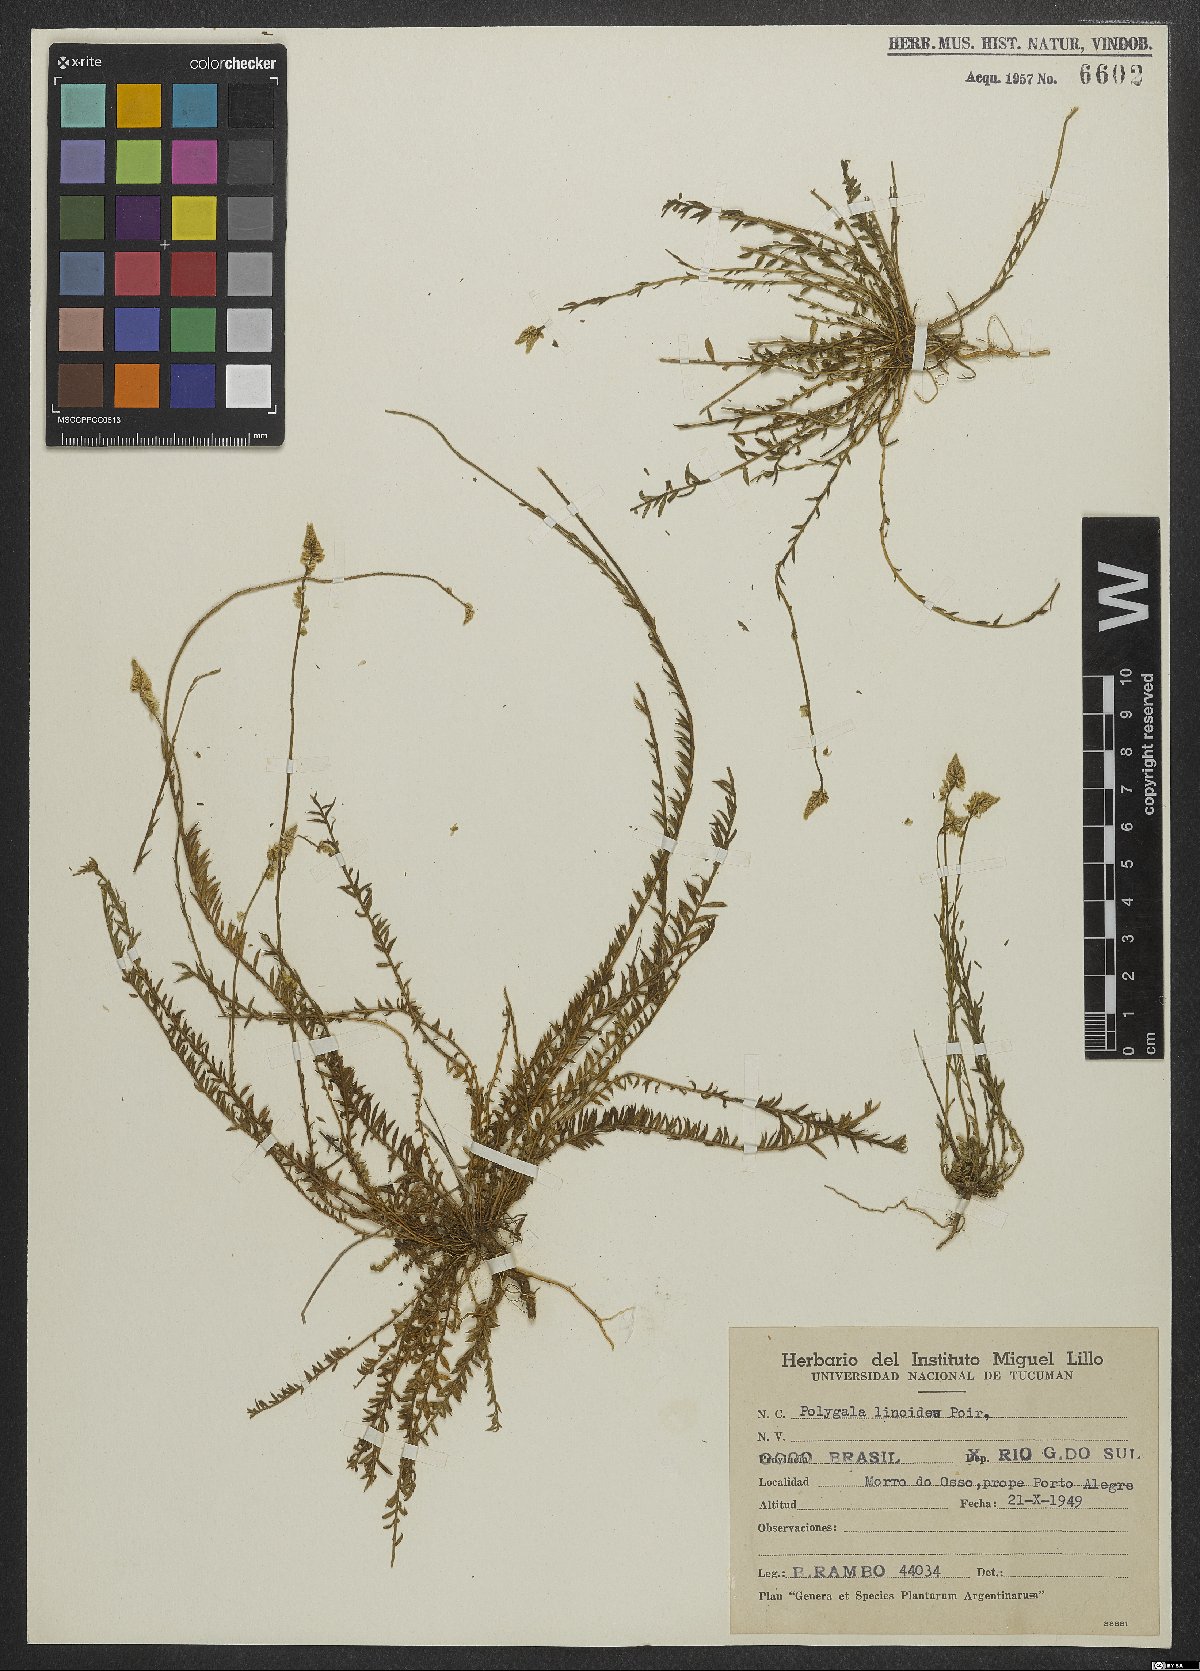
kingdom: Plantae
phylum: Tracheophyta
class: Magnoliopsida
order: Fabales
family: Polygalaceae
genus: Polygala
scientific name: Polygala linoides
